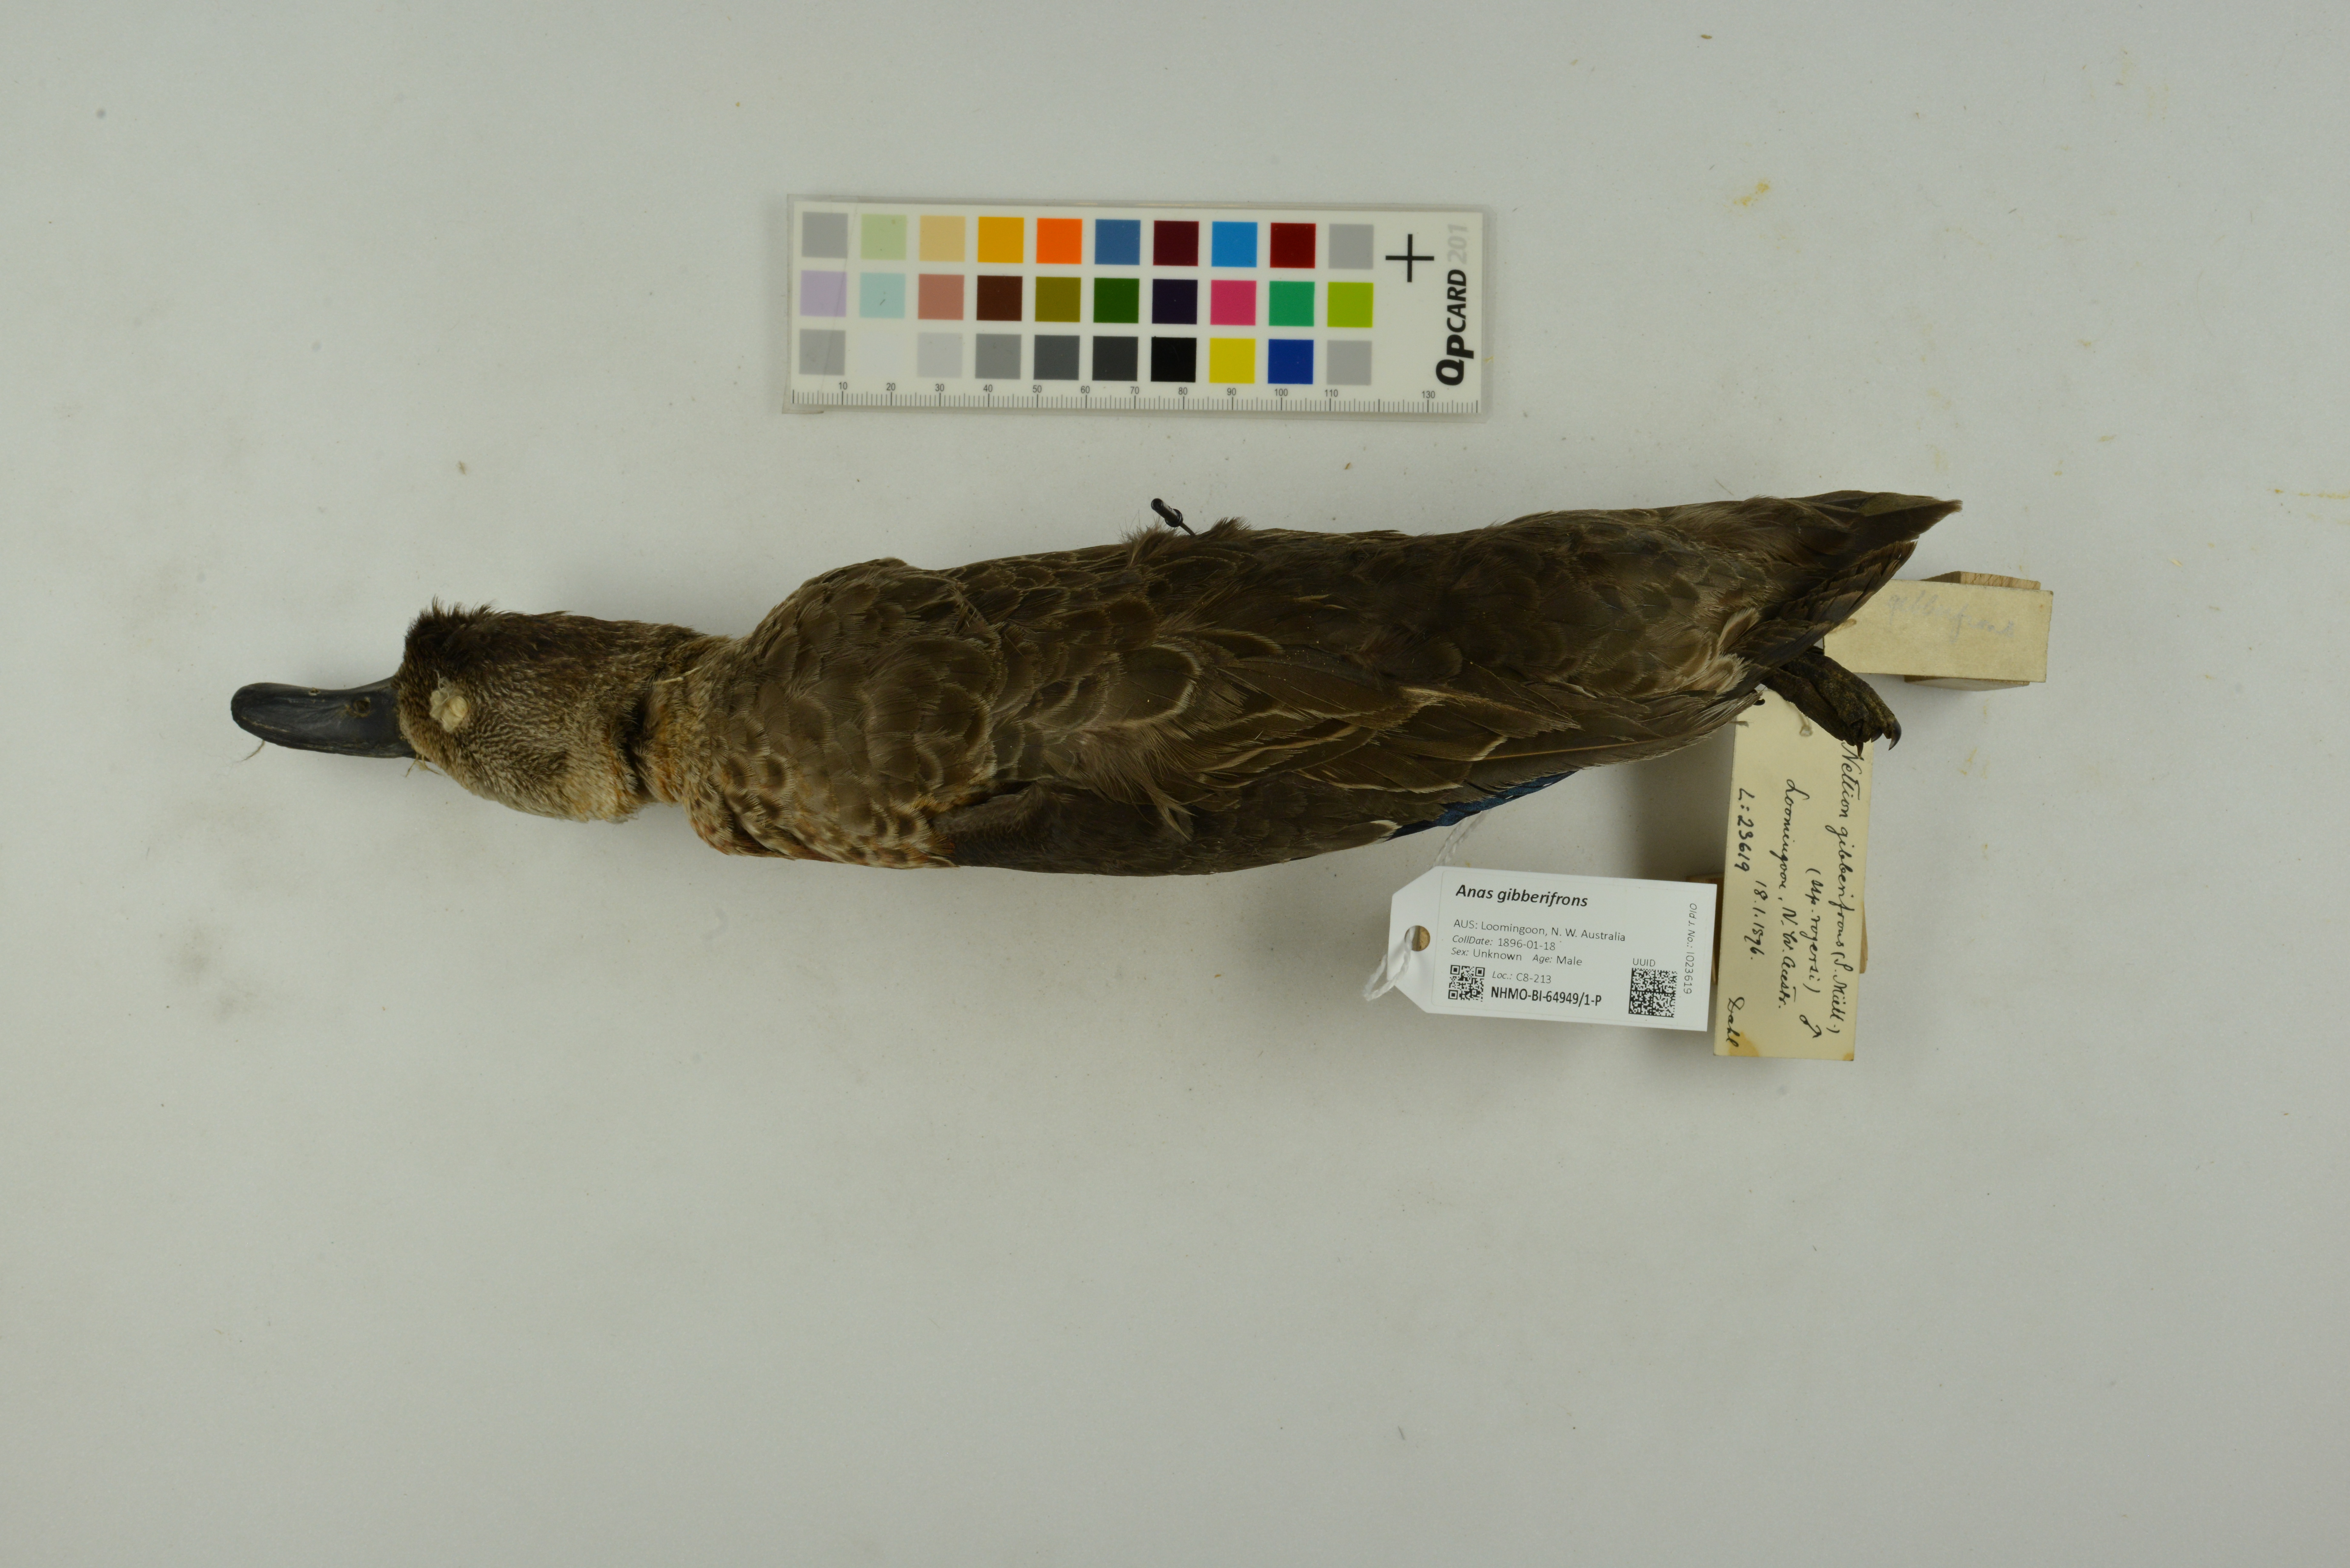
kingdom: Animalia
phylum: Chordata
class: Aves
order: Anseriformes
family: Anatidae
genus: Anas
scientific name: Anas gibberifrons
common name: Sunda teal
